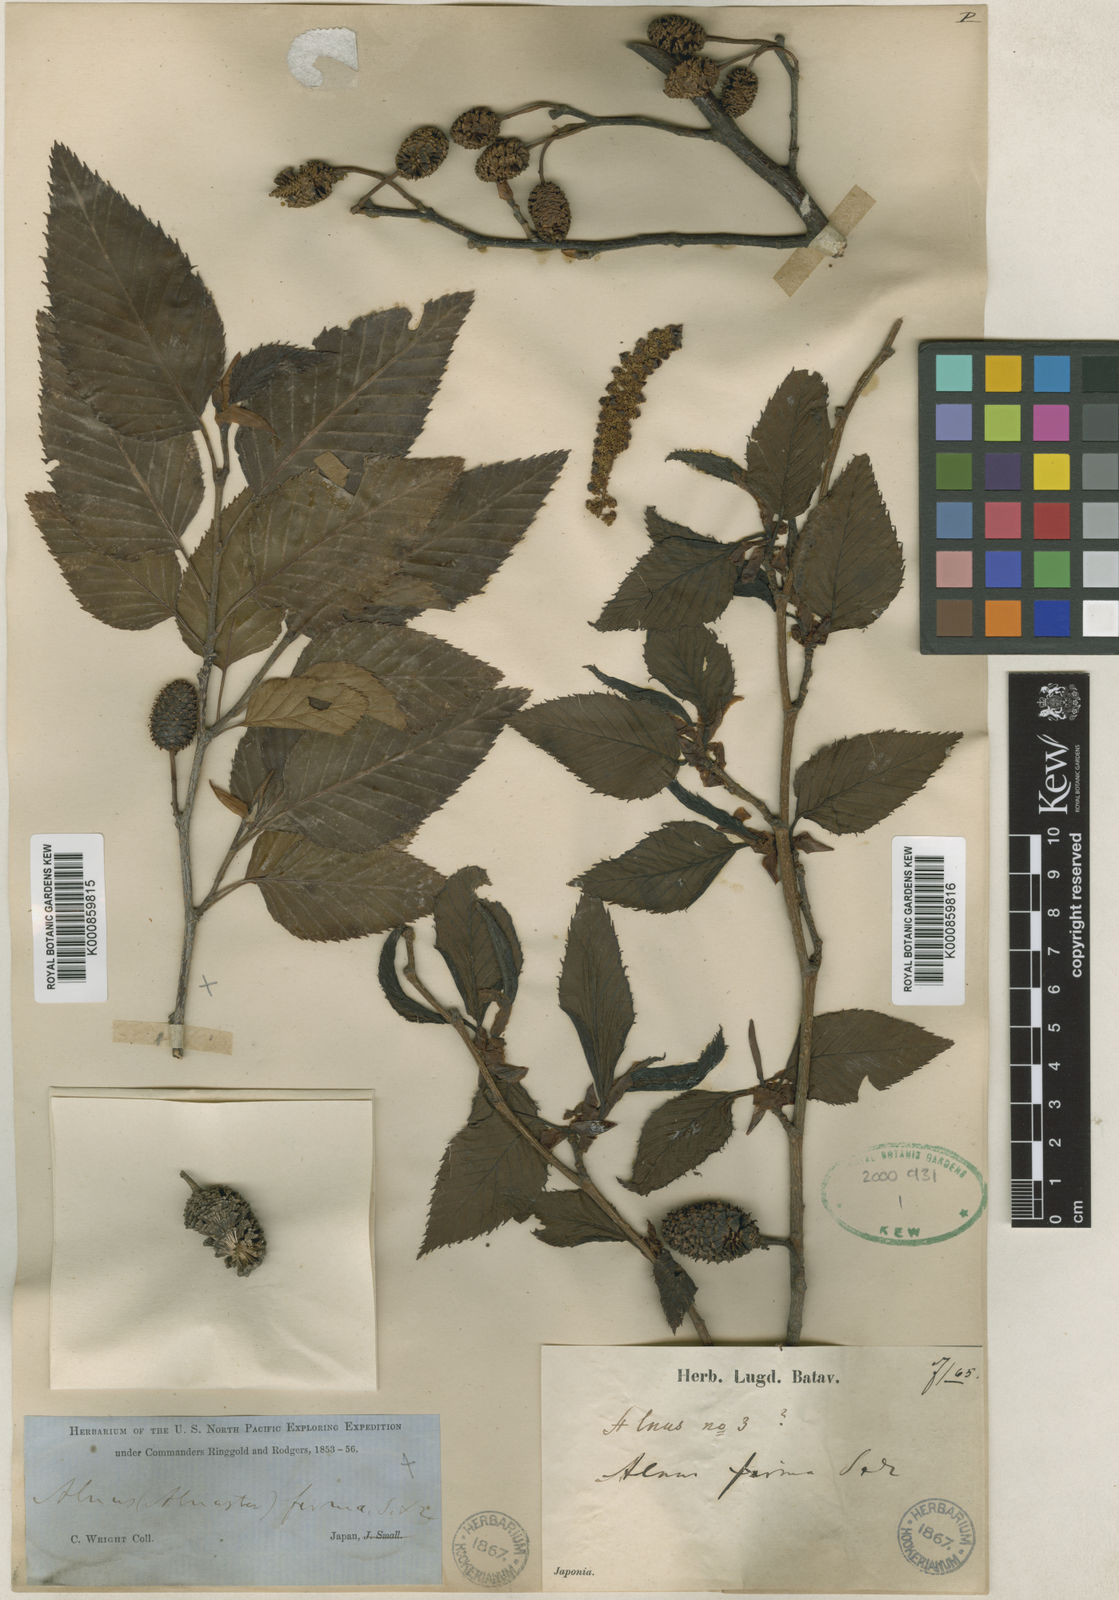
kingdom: Plantae
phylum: Tracheophyta
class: Magnoliopsida
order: Fagales
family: Betulaceae
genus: Alnus
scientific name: Alnus firma
